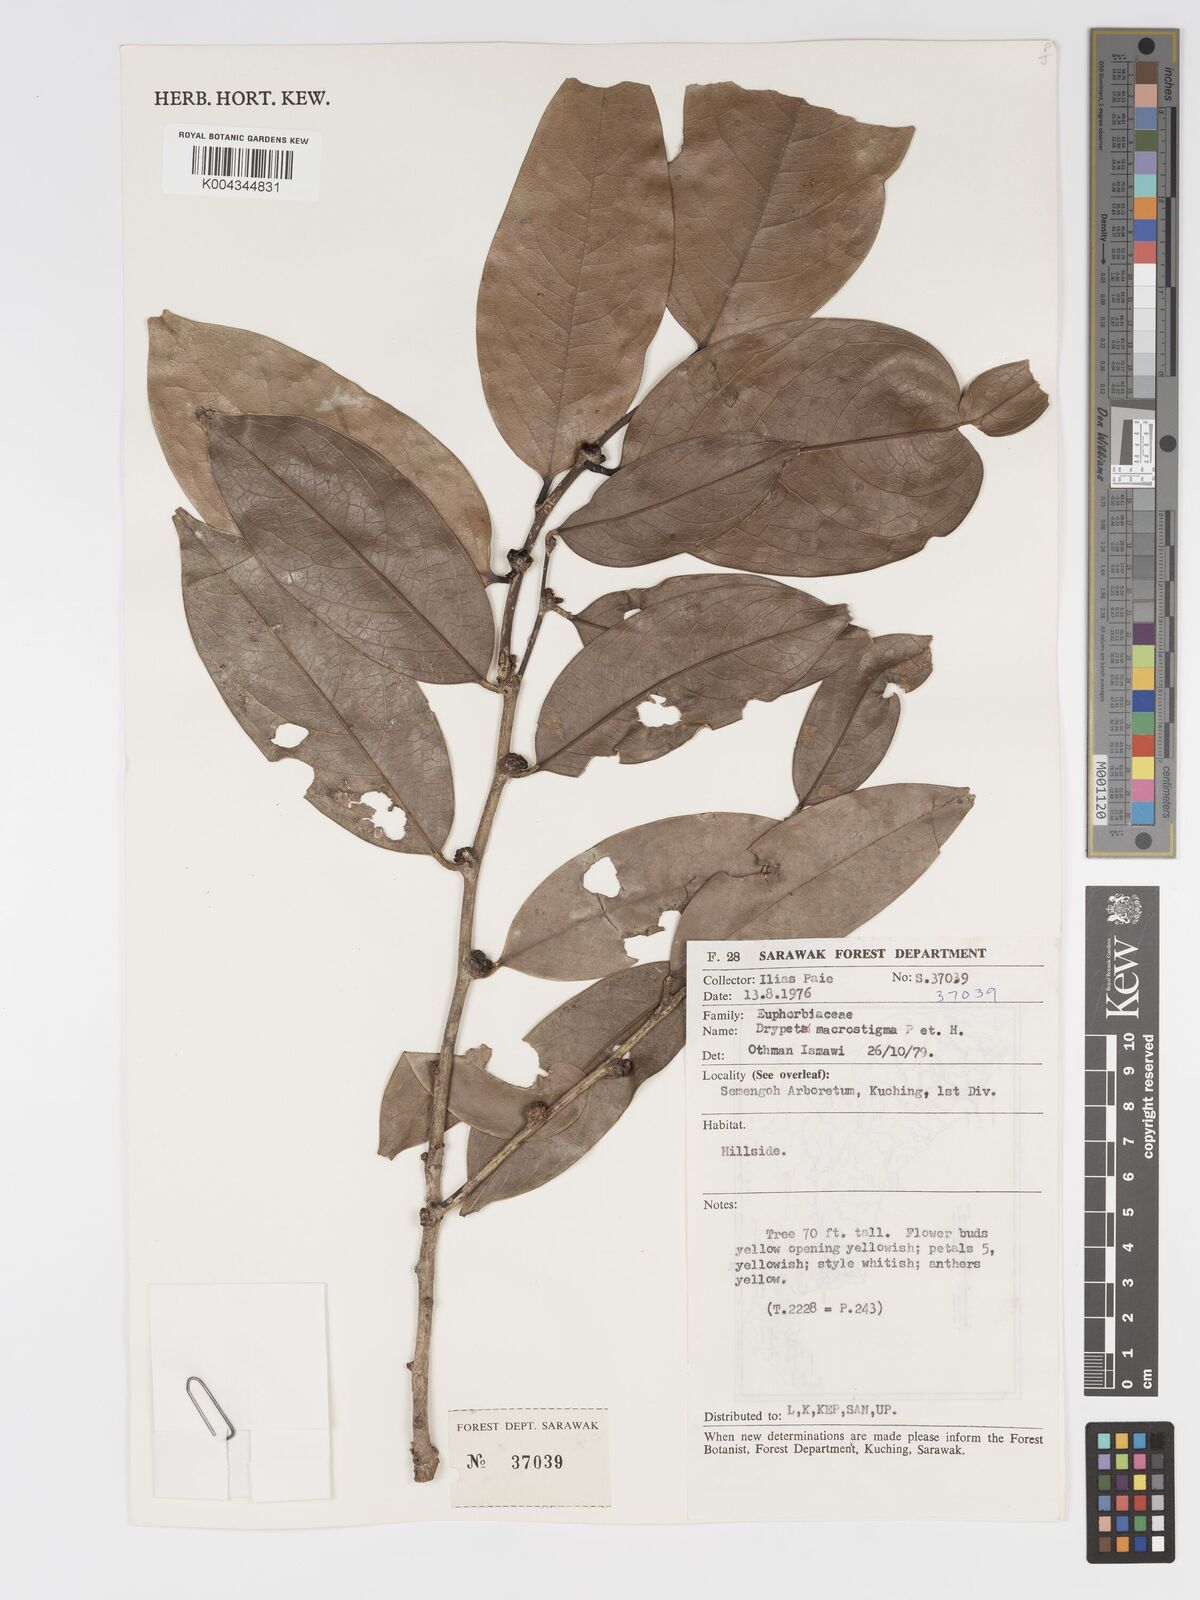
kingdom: Plantae
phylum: Tracheophyta
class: Magnoliopsida
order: Malpighiales
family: Putranjivaceae
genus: Drypetes
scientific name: Drypetes macrostigma
